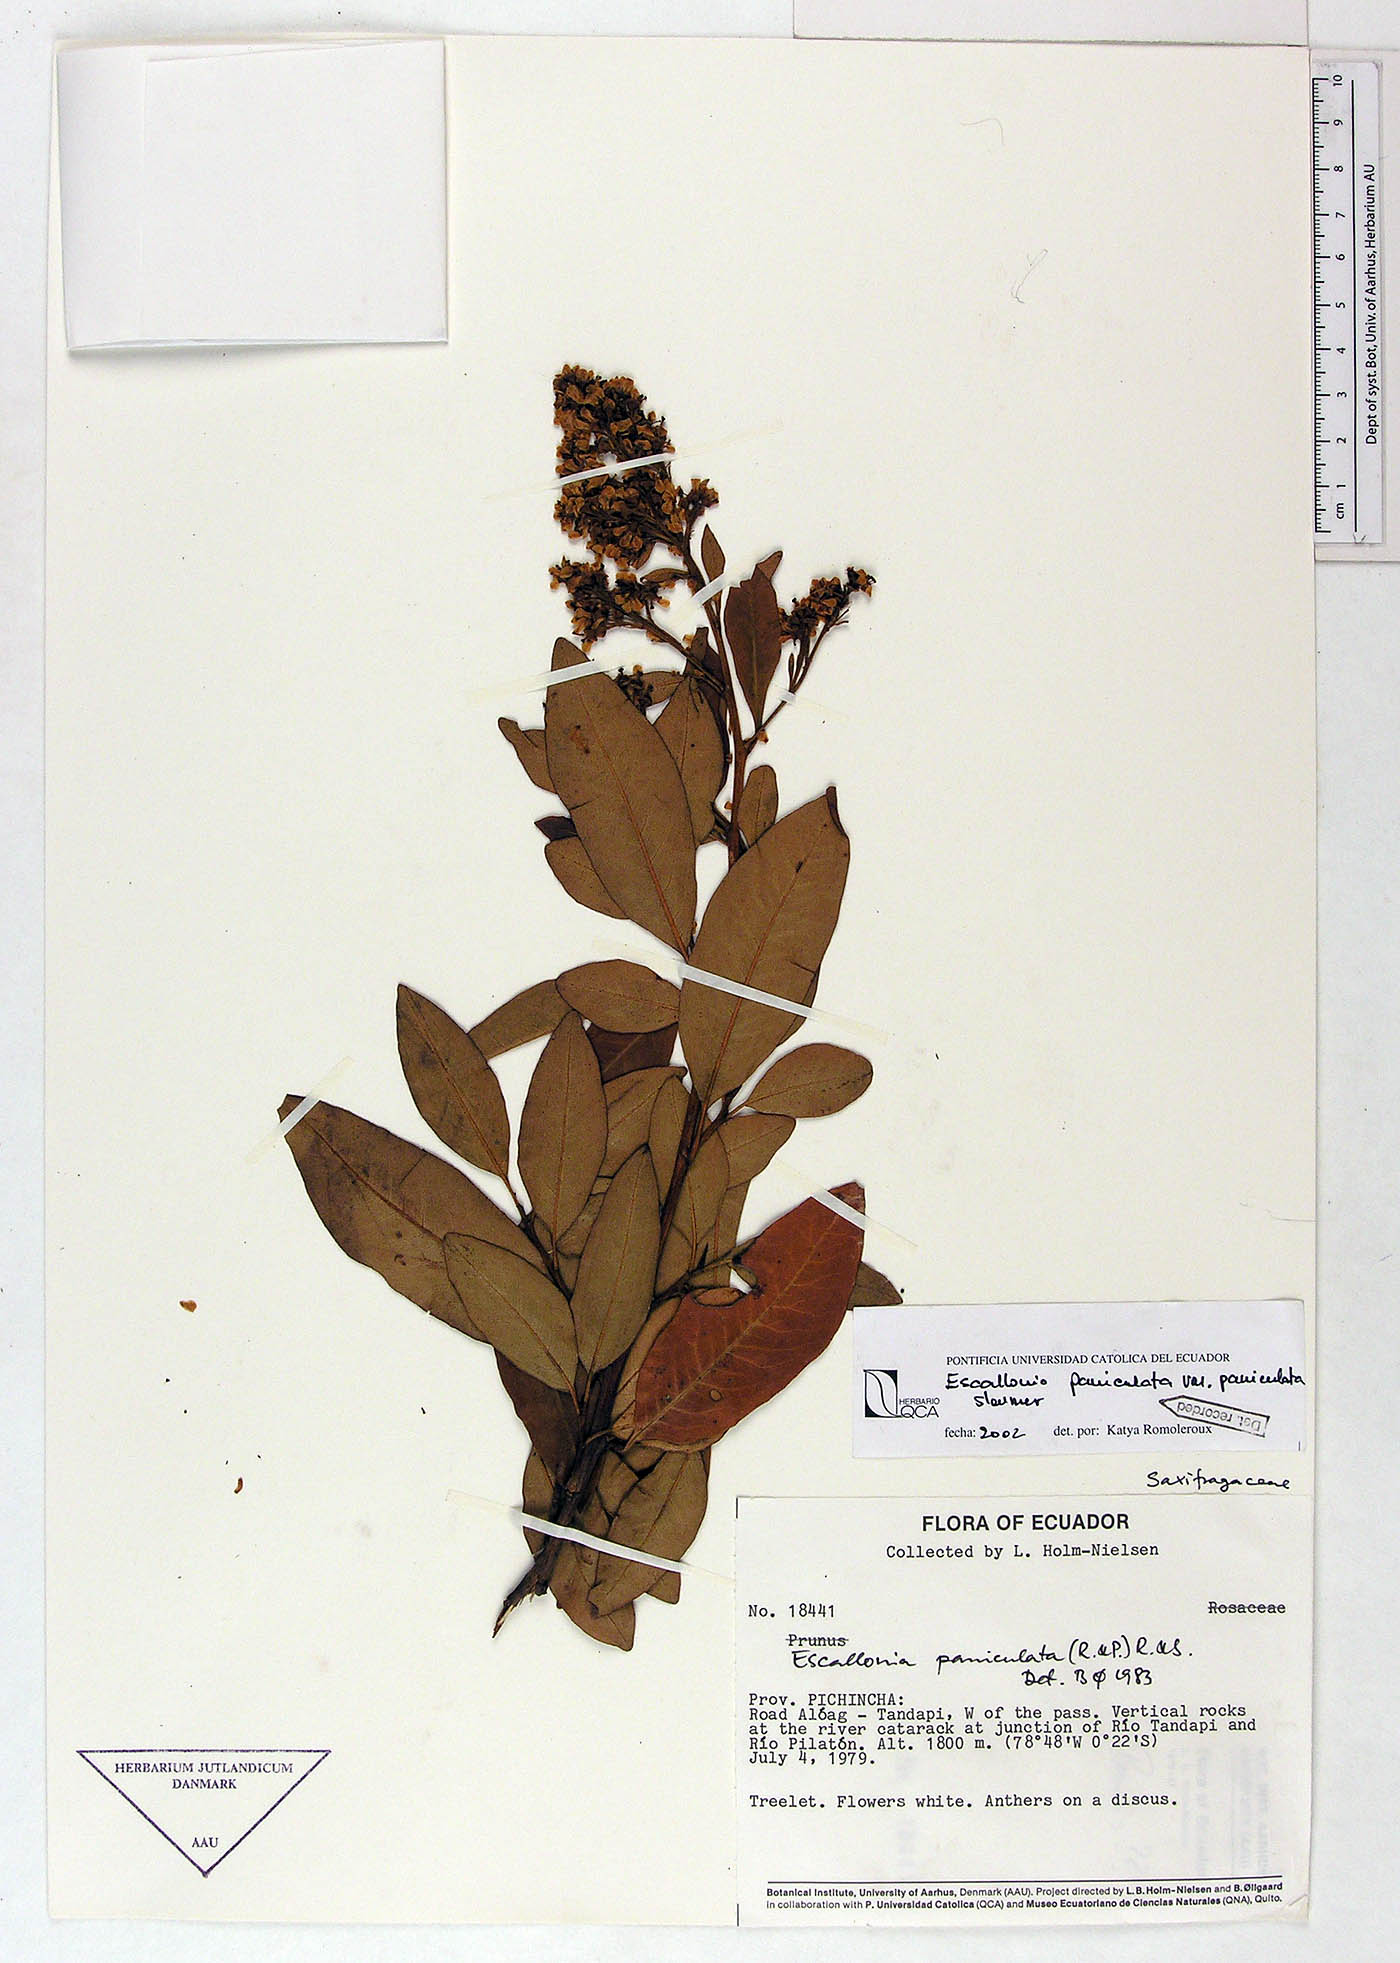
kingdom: Plantae
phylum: Tracheophyta
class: Magnoliopsida
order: Escalloniales
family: Escalloniaceae
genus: Escallonia
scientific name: Escallonia paniculata
